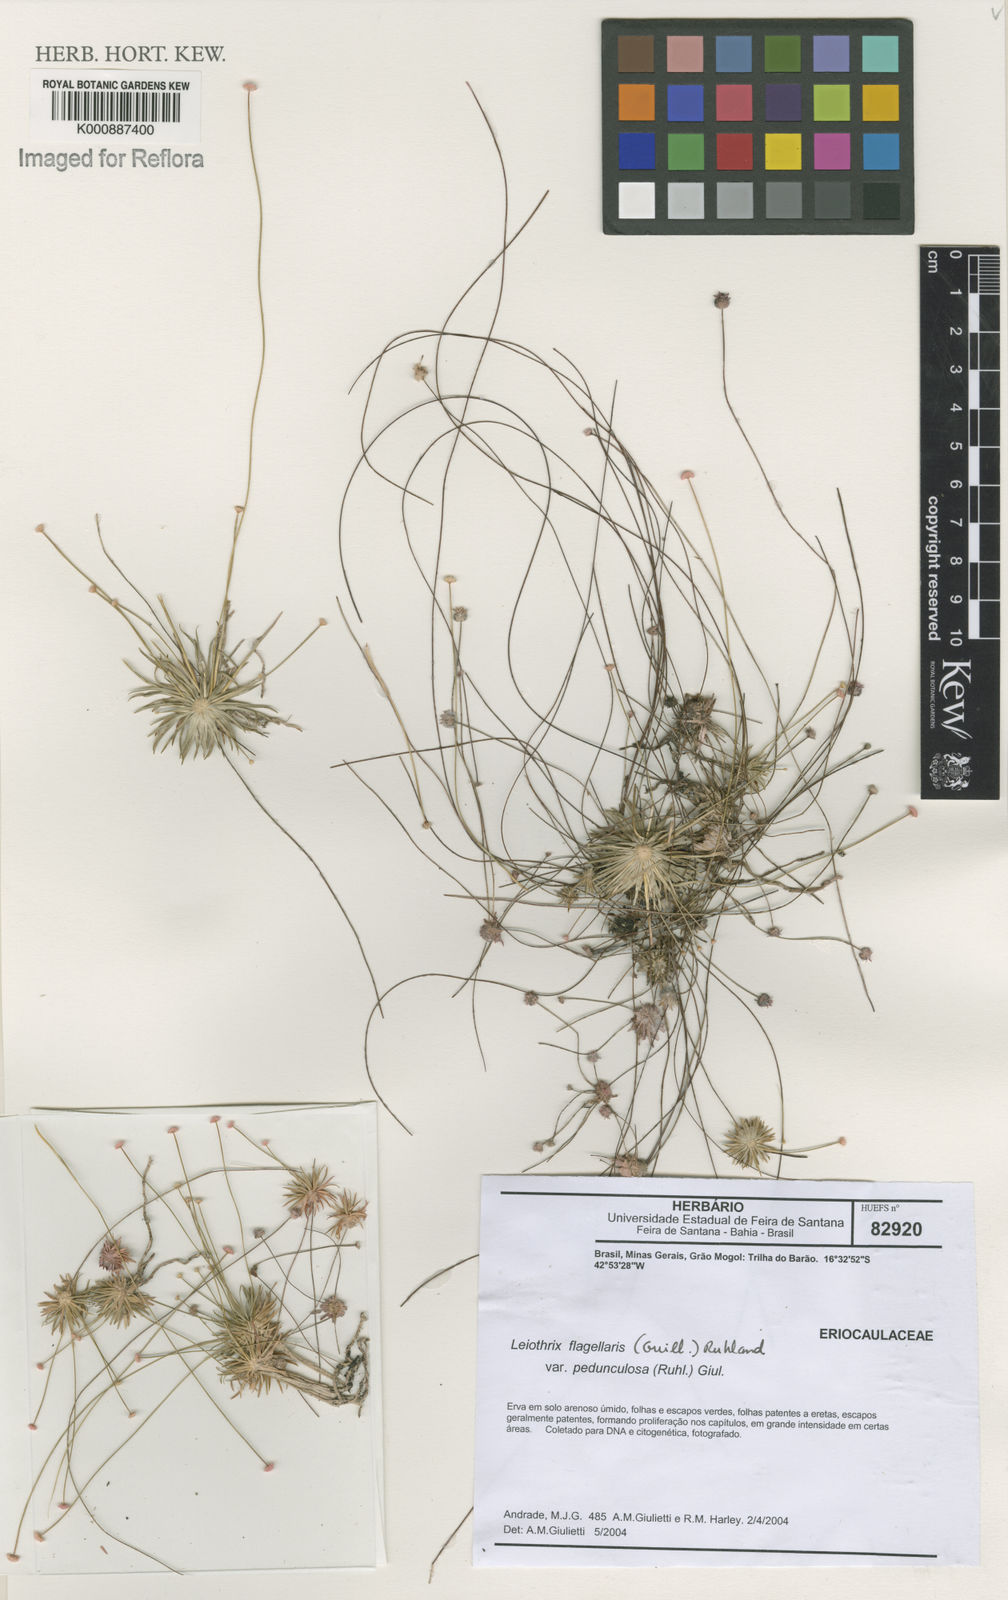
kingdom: Plantae
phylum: Tracheophyta
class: Liliopsida
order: Poales
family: Eriocaulaceae
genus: Leiothrix
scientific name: Leiothrix flagellaris
